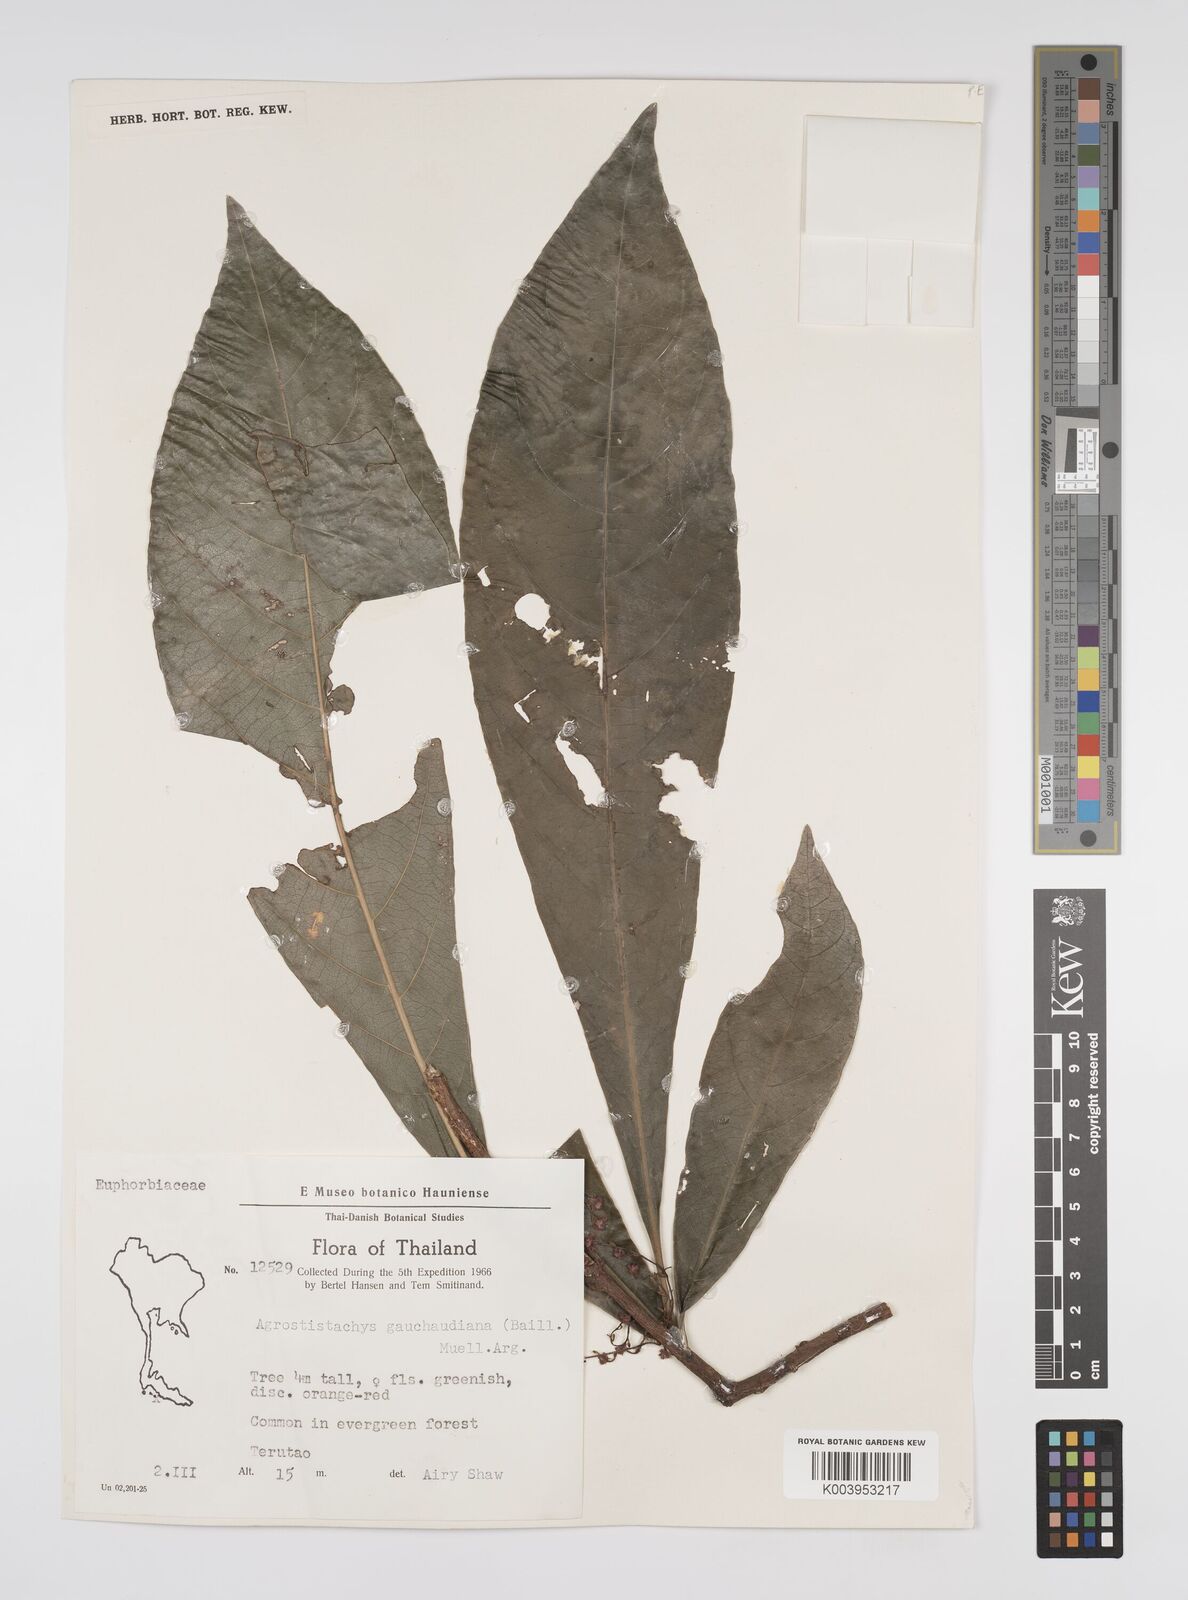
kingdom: Plantae
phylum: Tracheophyta
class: Magnoliopsida
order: Malpighiales
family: Euphorbiaceae
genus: Agrostistachys
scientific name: Agrostistachys gaudichaudii
